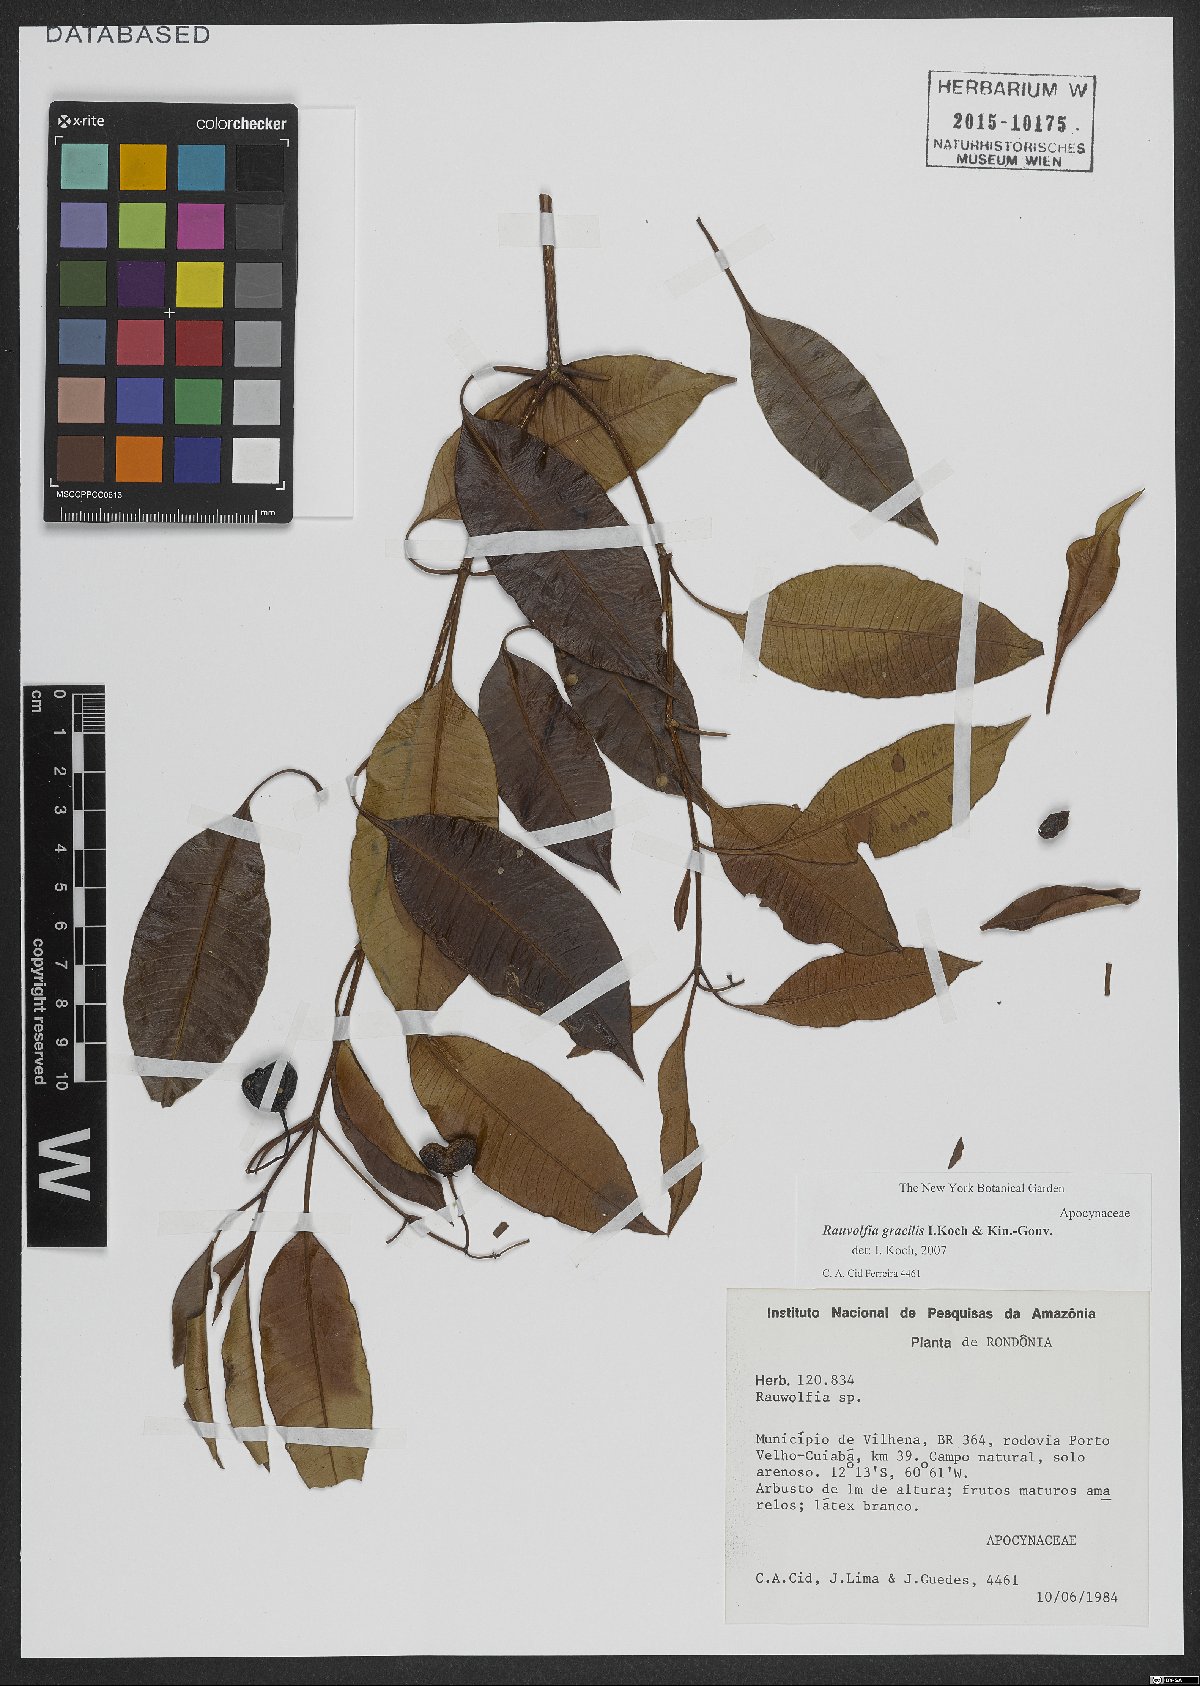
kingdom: Plantae
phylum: Tracheophyta
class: Magnoliopsida
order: Gentianales
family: Apocynaceae
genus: Rauvolfia
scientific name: Rauvolfia gracilis
